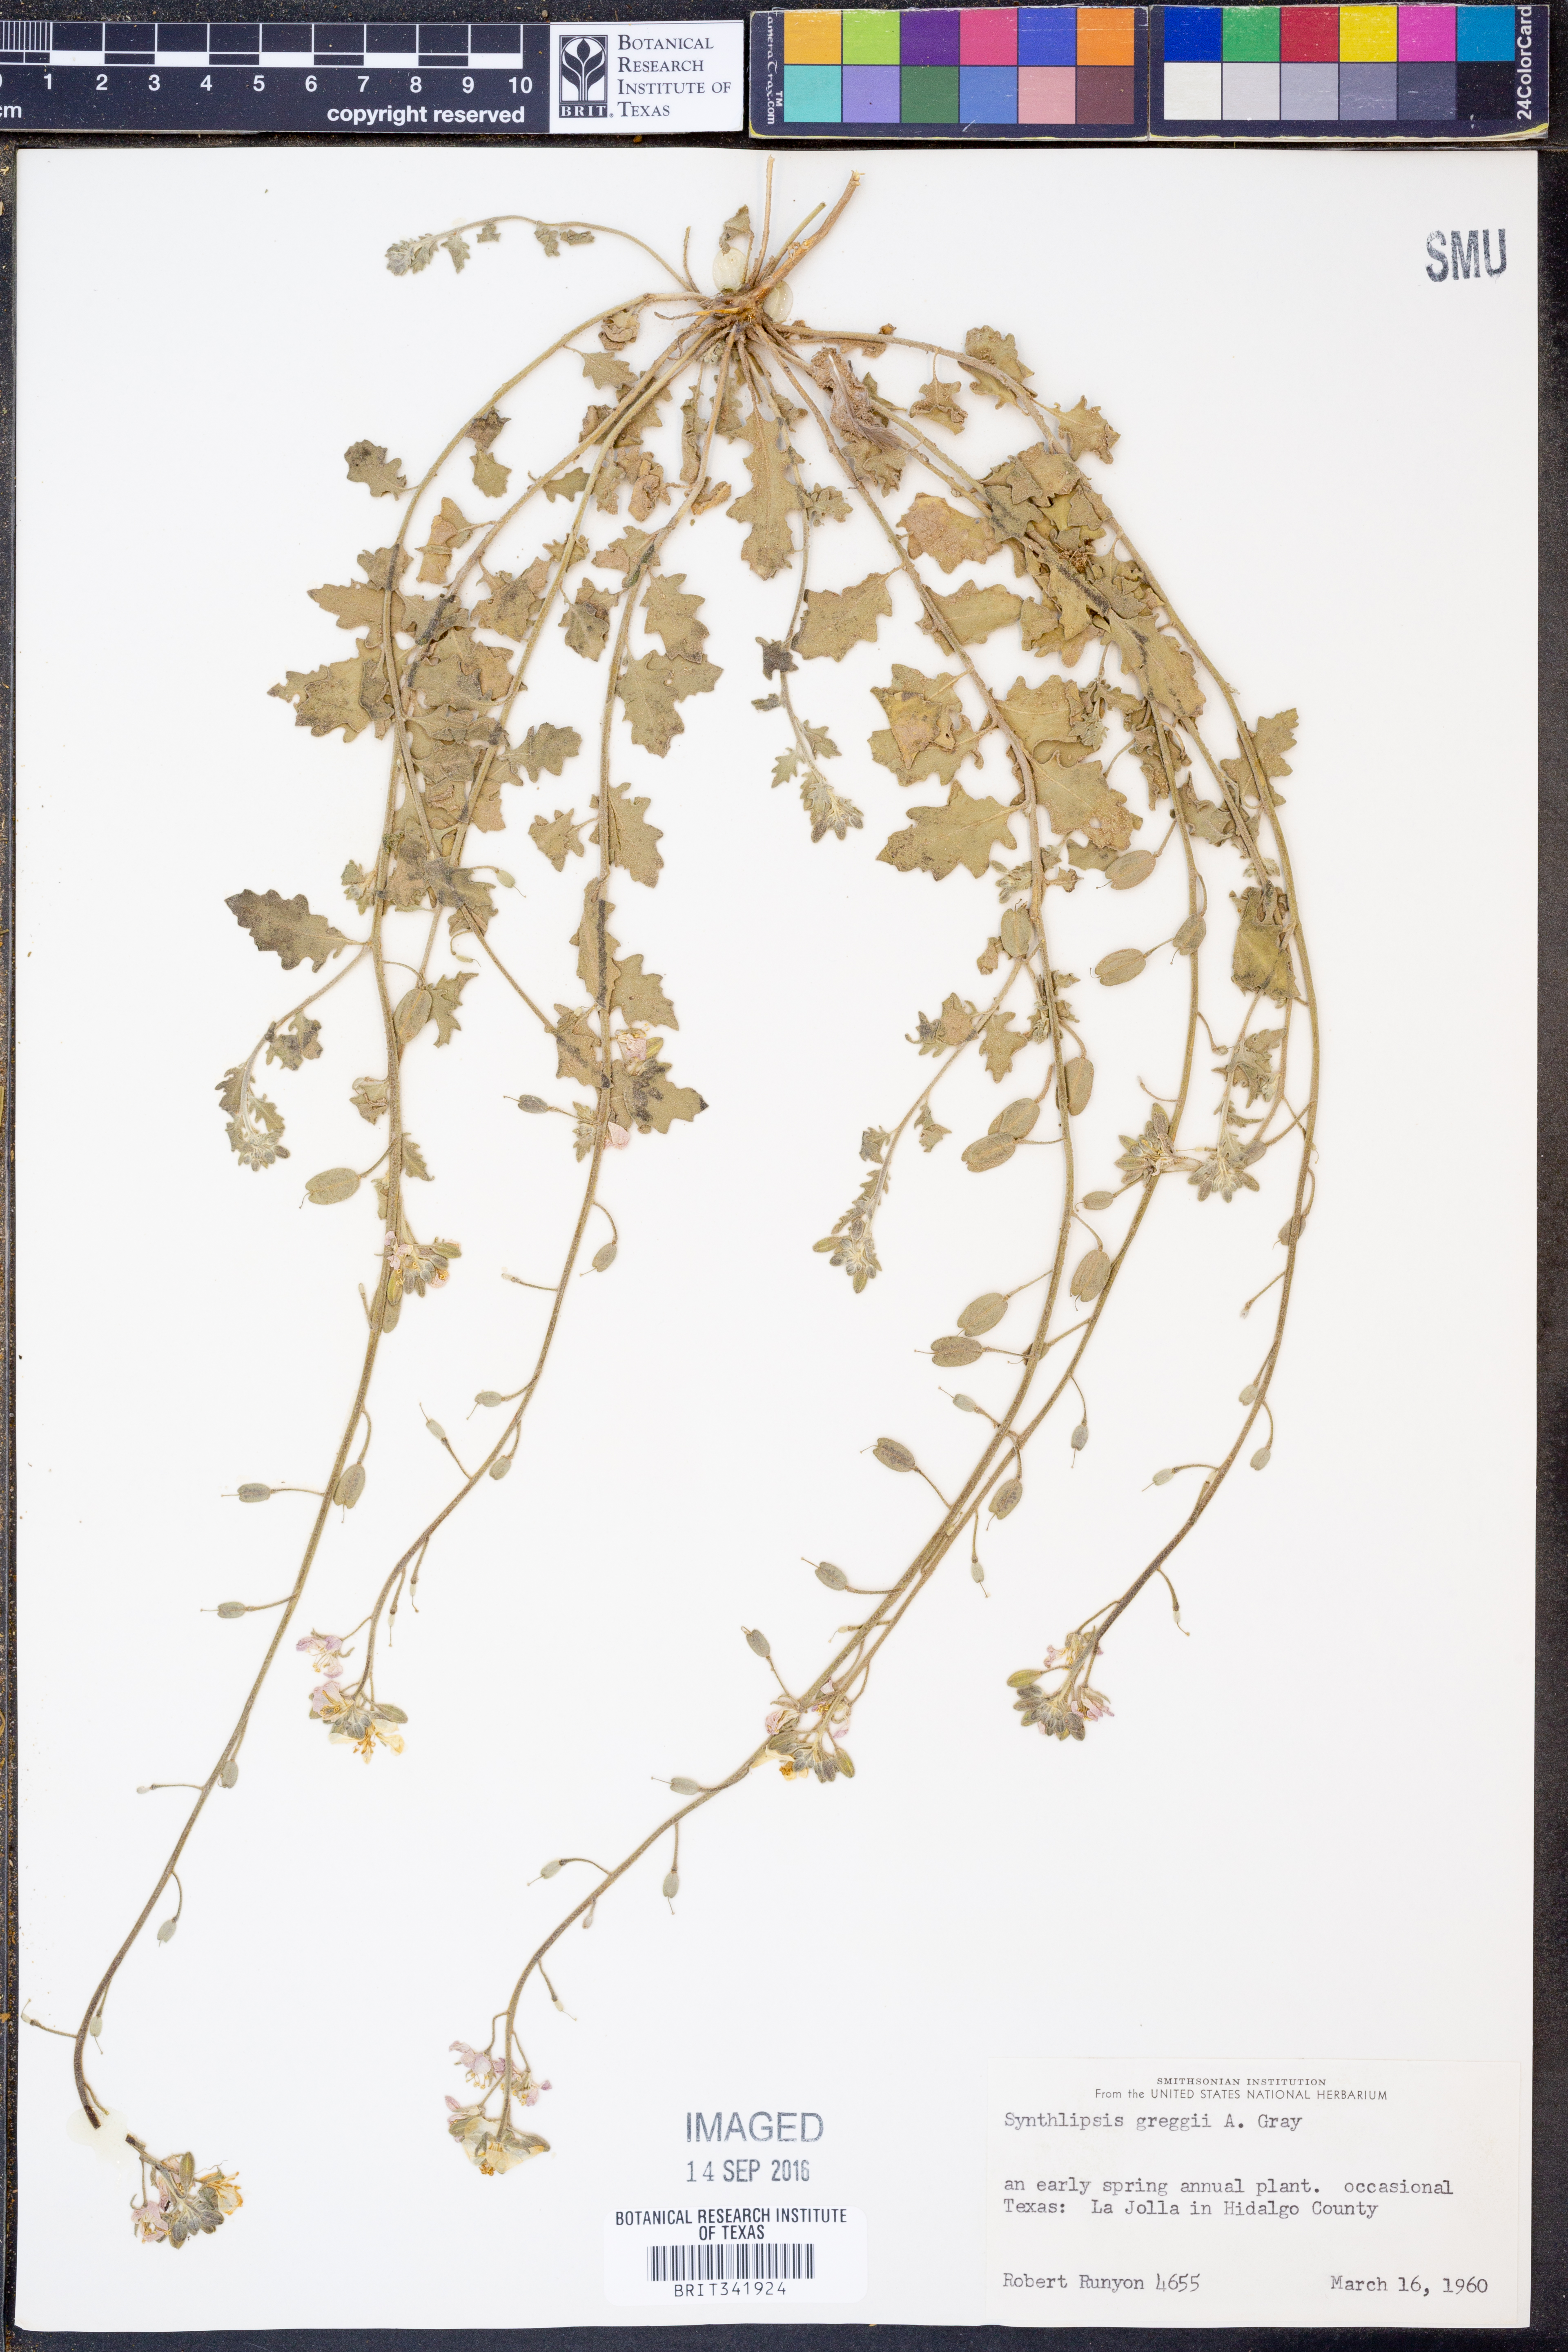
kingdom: Plantae
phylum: Tracheophyta
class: Magnoliopsida
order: Brassicales
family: Brassicaceae
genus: Synthlipsis
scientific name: Synthlipsis greggii
